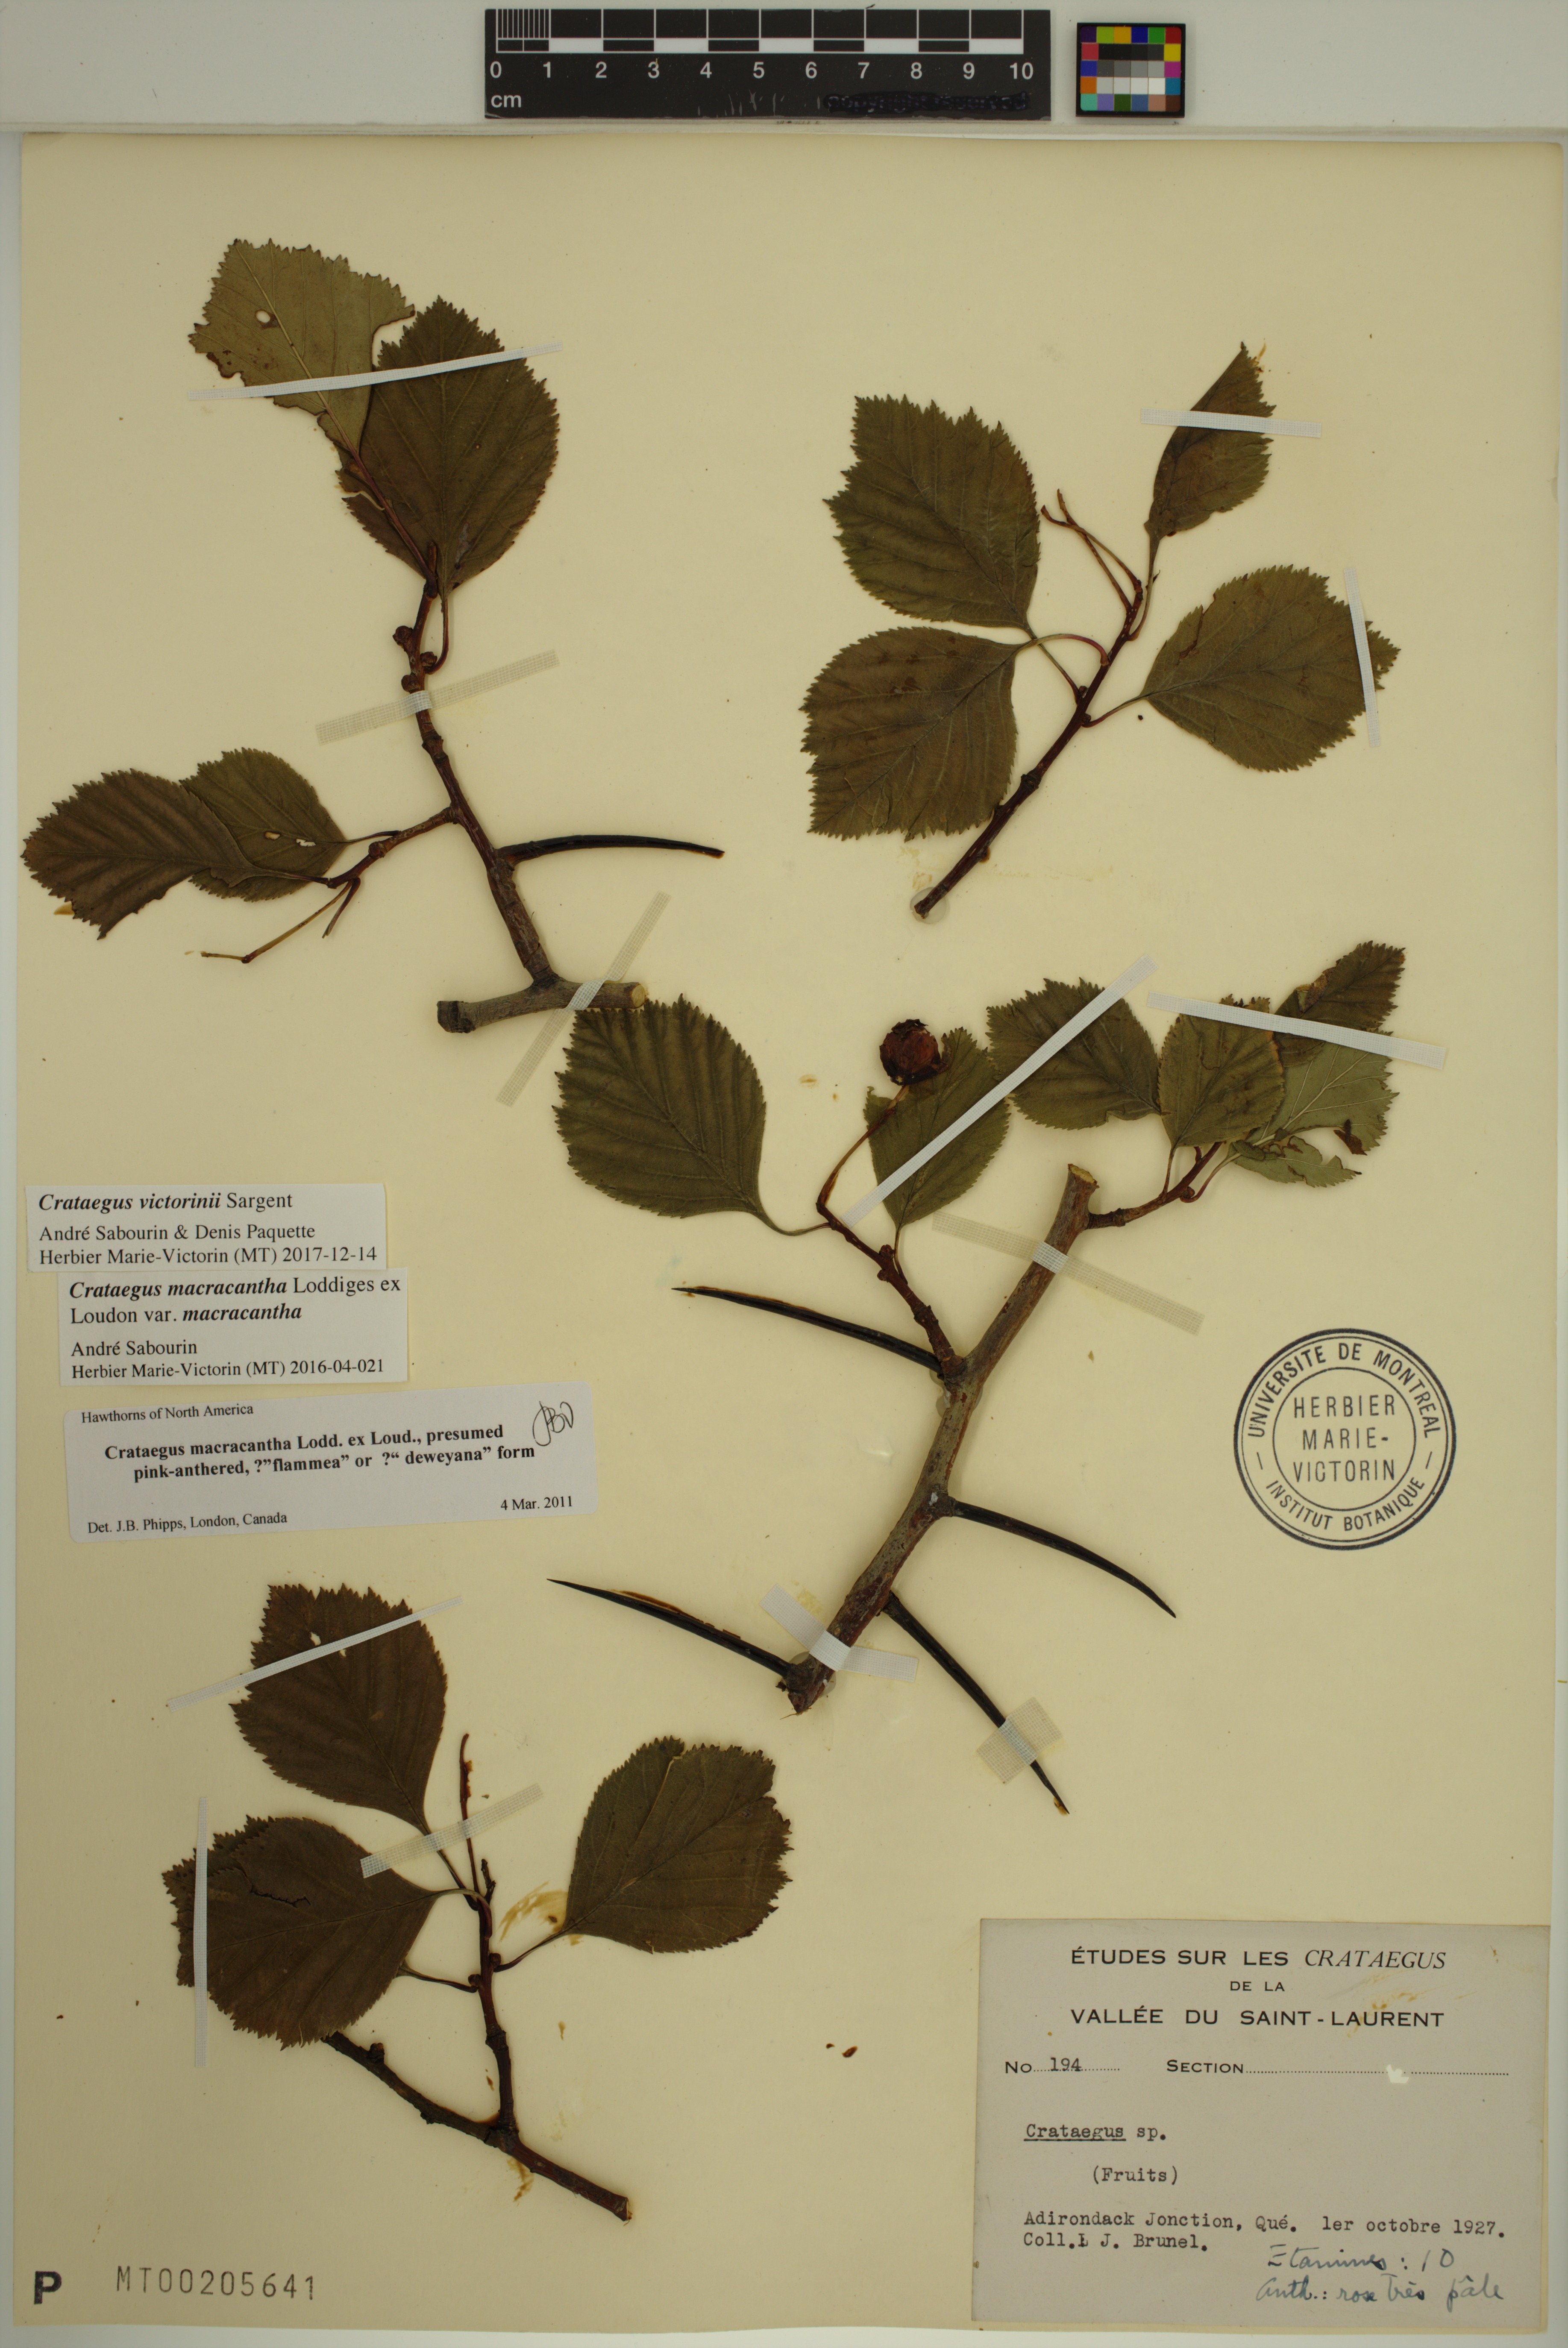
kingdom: Plantae
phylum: Tracheophyta
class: Magnoliopsida
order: Rosales
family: Rosaceae
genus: Crataegus
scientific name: Crataegus macracantha
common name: Large-thorn hawthorn
